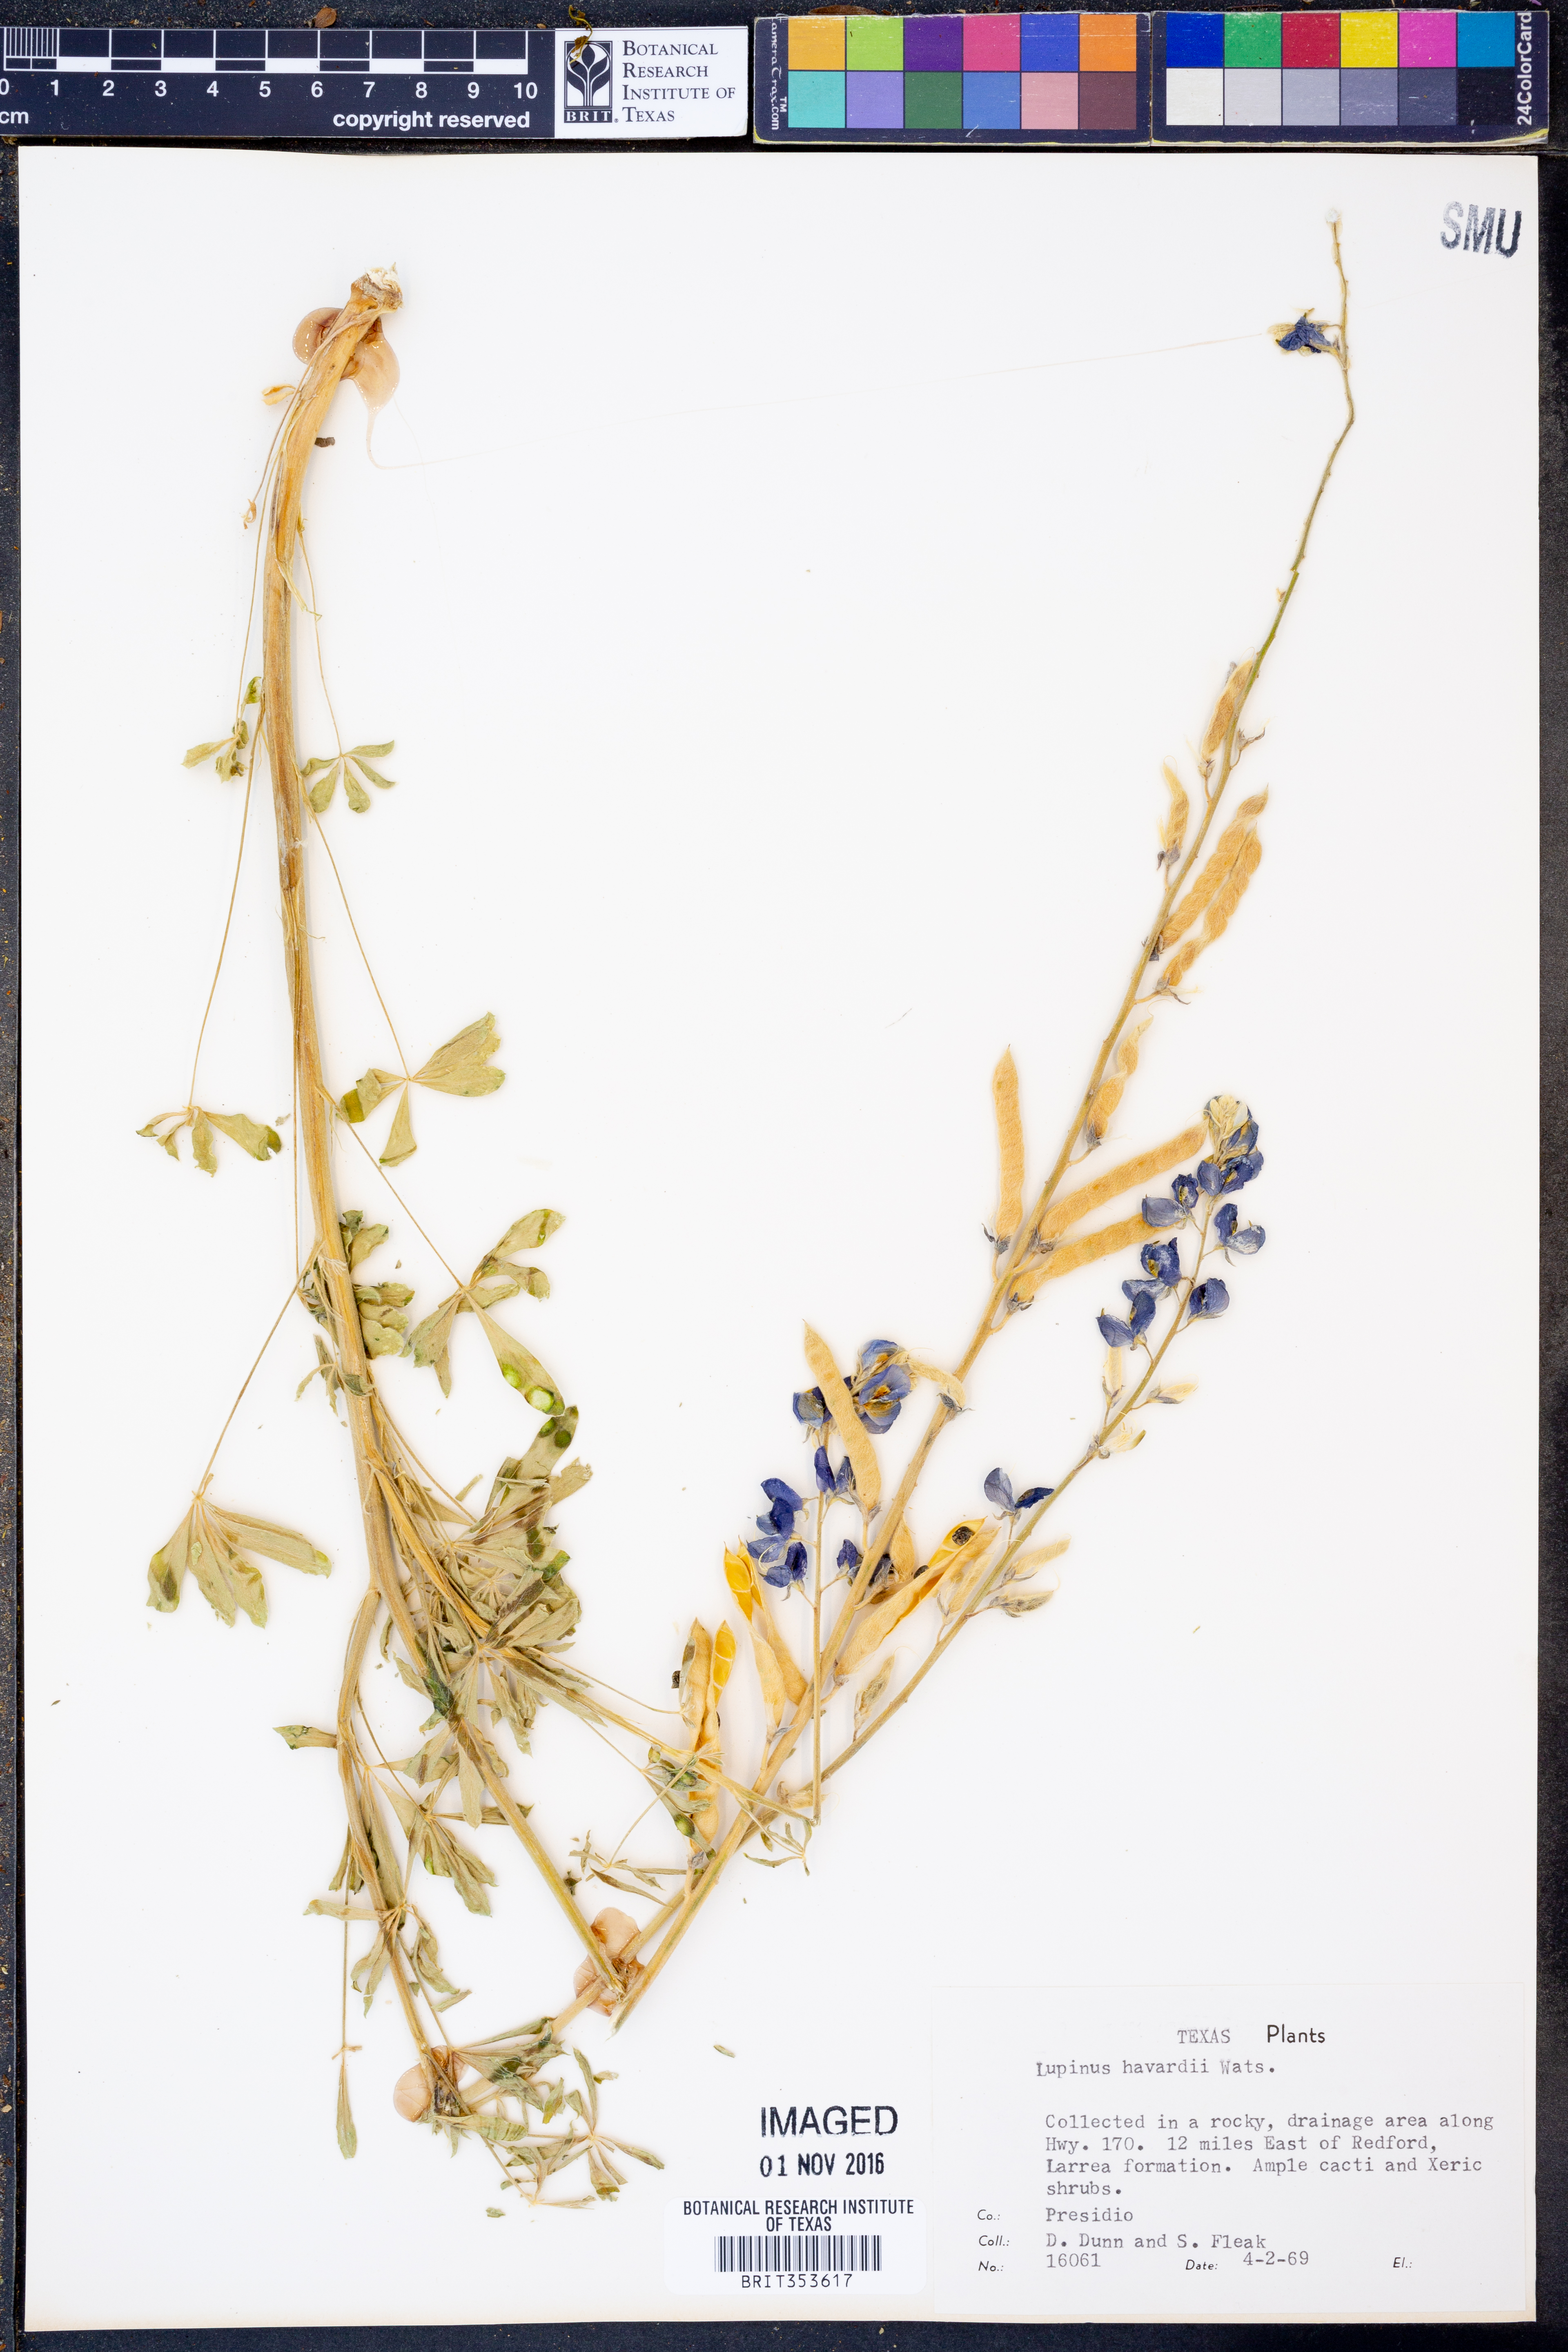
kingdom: Plantae
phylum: Tracheophyta
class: Magnoliopsida
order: Fabales
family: Fabaceae
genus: Lupinus
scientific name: Lupinus havardii
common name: Chisos bluebonnet
